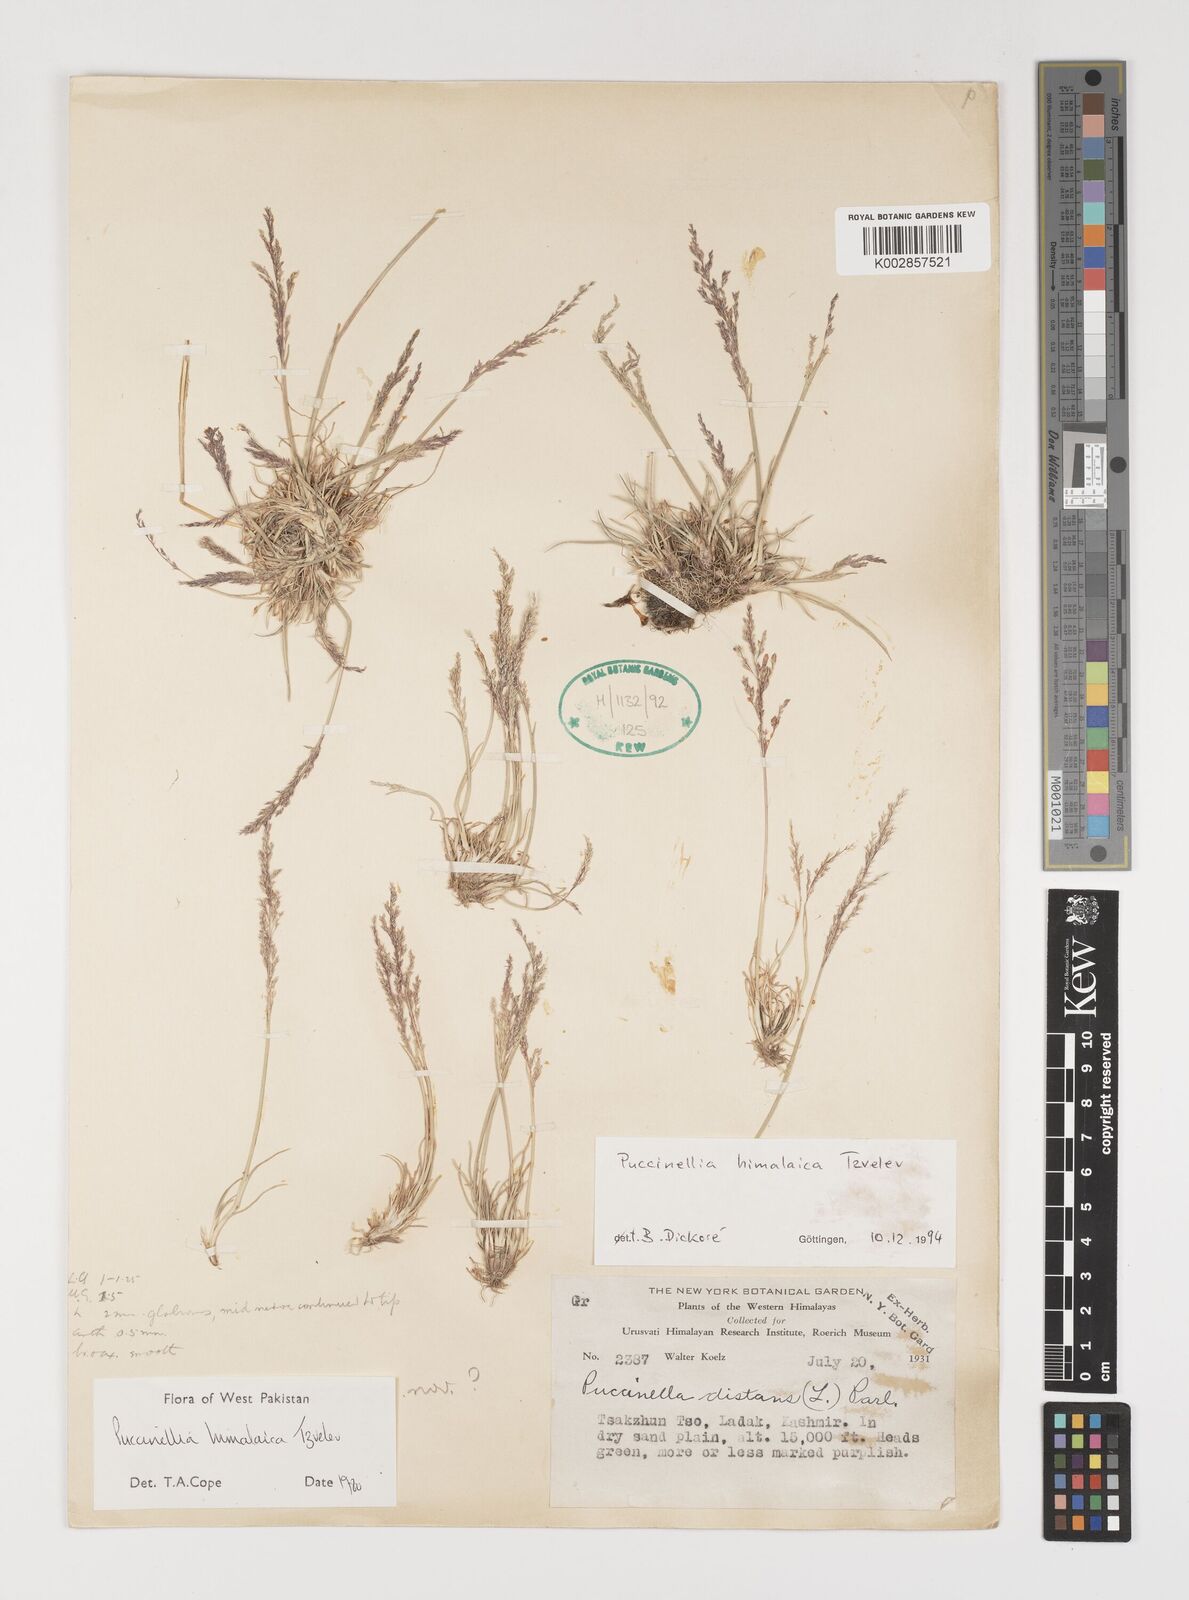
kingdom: Plantae
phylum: Tracheophyta
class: Liliopsida
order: Poales
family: Poaceae
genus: Puccinellia
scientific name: Puccinellia himalaica
